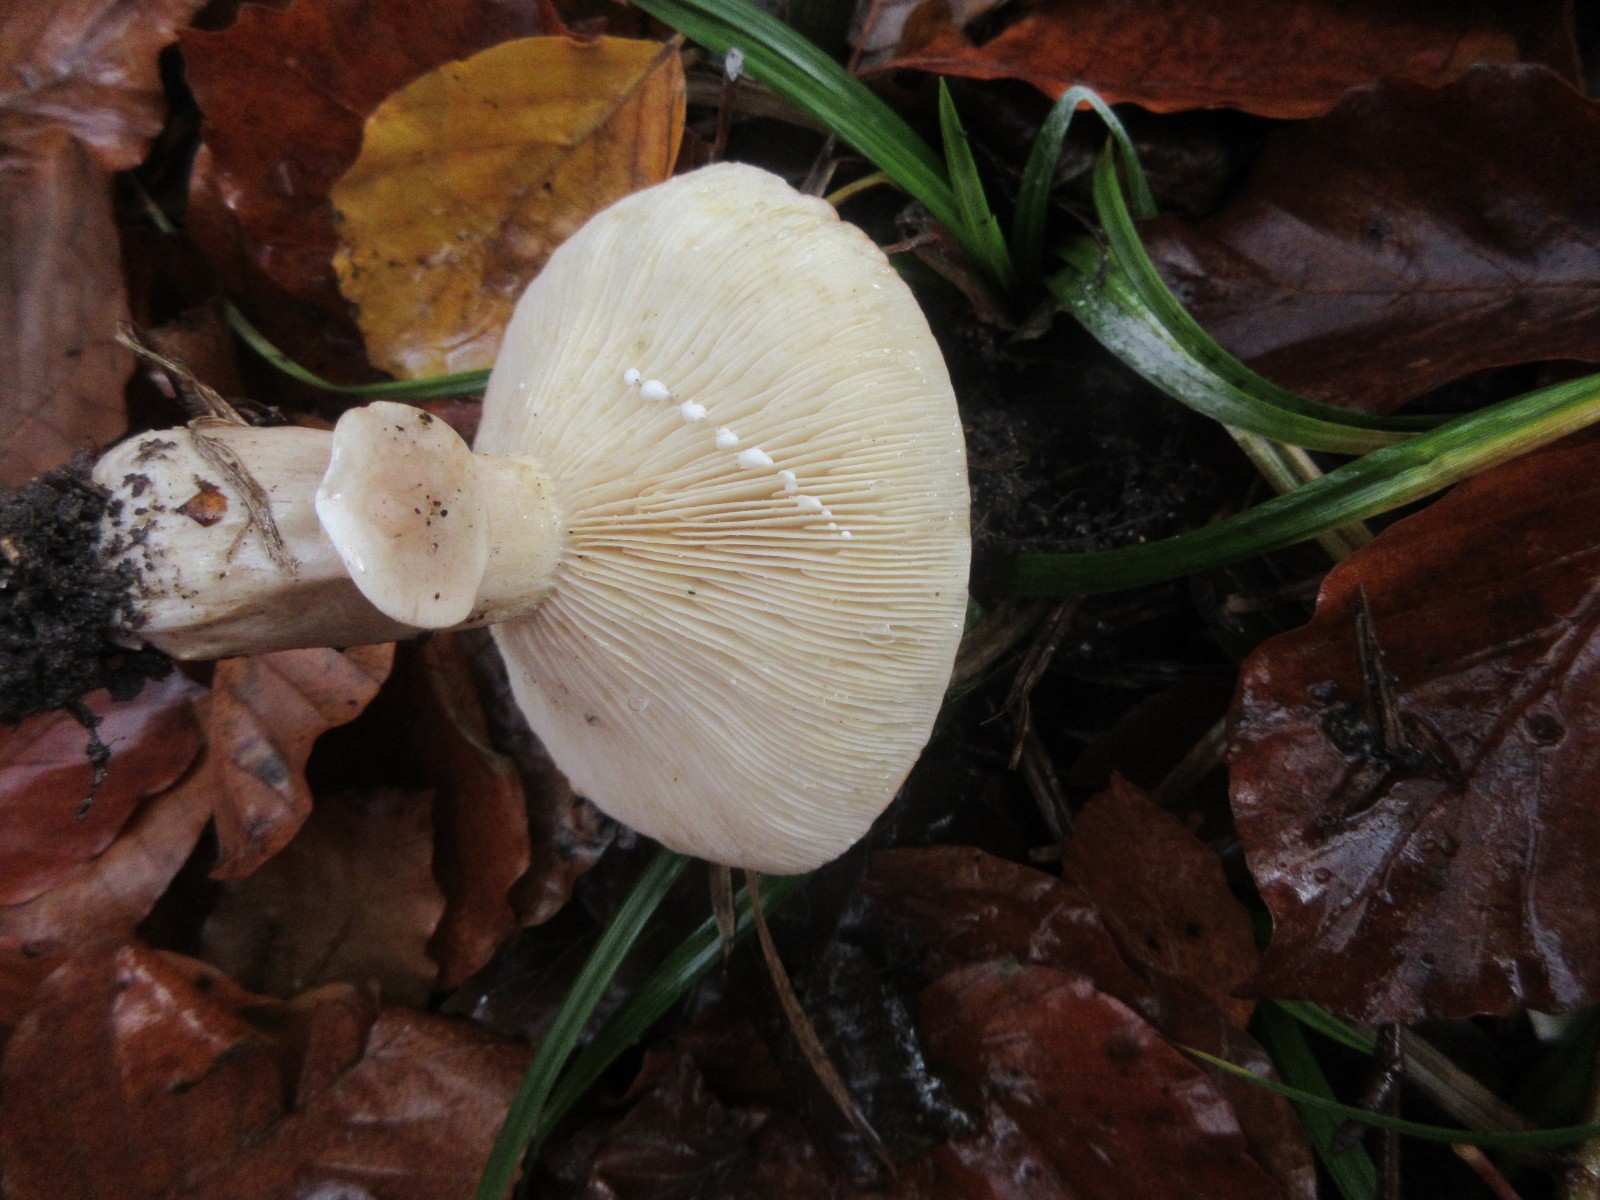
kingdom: Fungi
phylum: Basidiomycota
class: Agaricomycetes
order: Russulales
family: Russulaceae
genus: Lactarius
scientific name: Lactarius fluens
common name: lysrandet mælkehat
